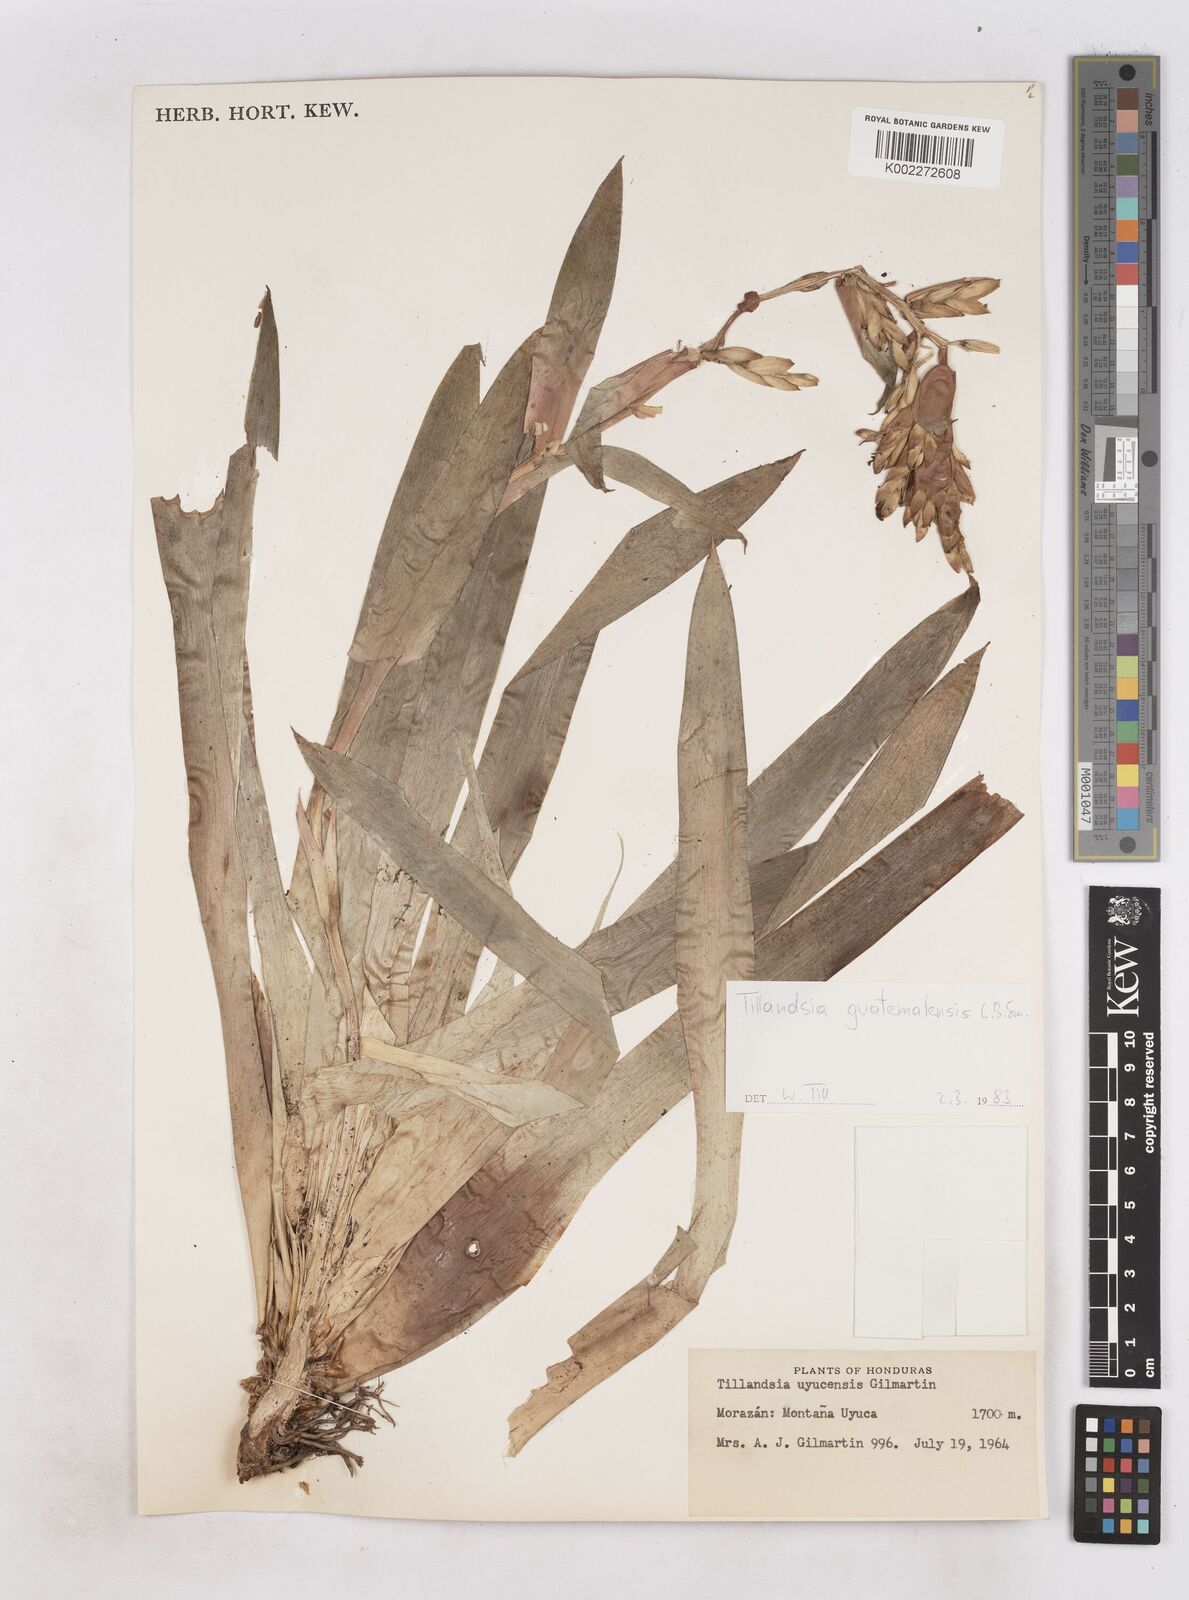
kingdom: Plantae
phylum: Tracheophyta
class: Liliopsida
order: Poales
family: Bromeliaceae
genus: Tillandsia
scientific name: Tillandsia guatemalensis
